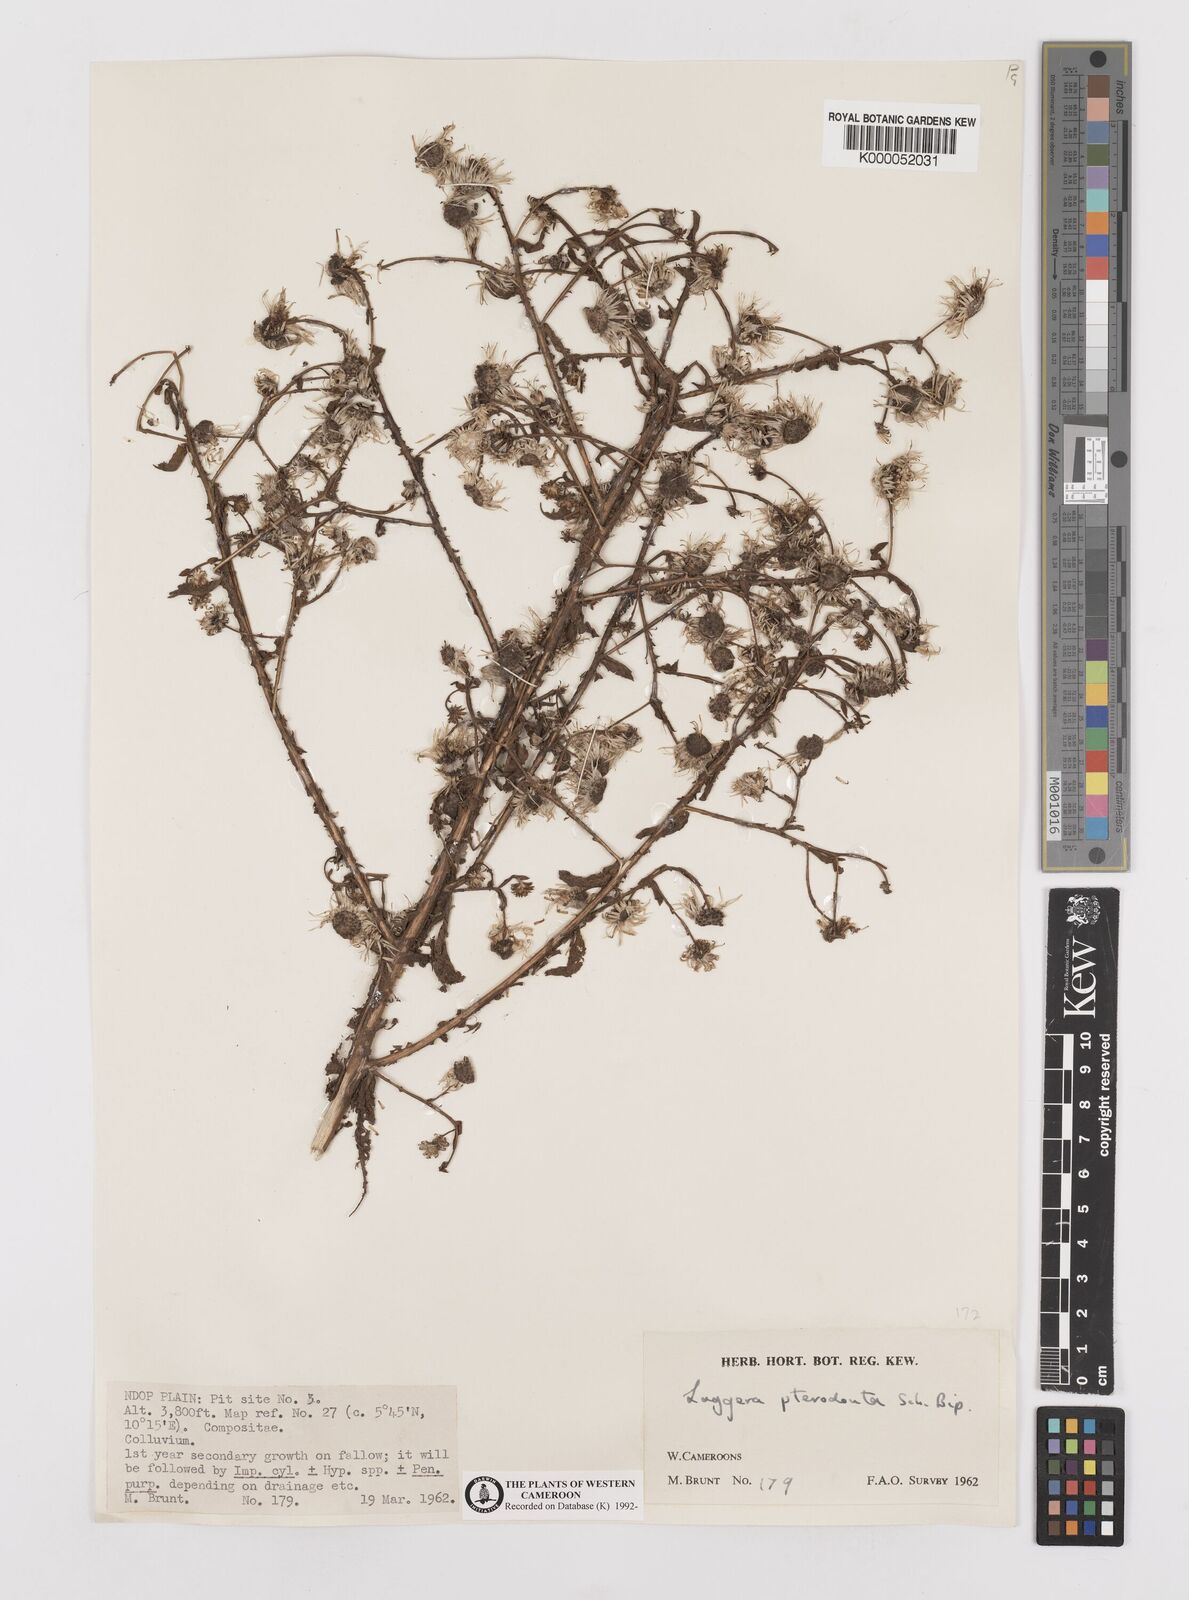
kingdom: Plantae
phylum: Tracheophyta
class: Magnoliopsida
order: Asterales
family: Asteraceae
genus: Laggera
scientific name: Laggera crispata
